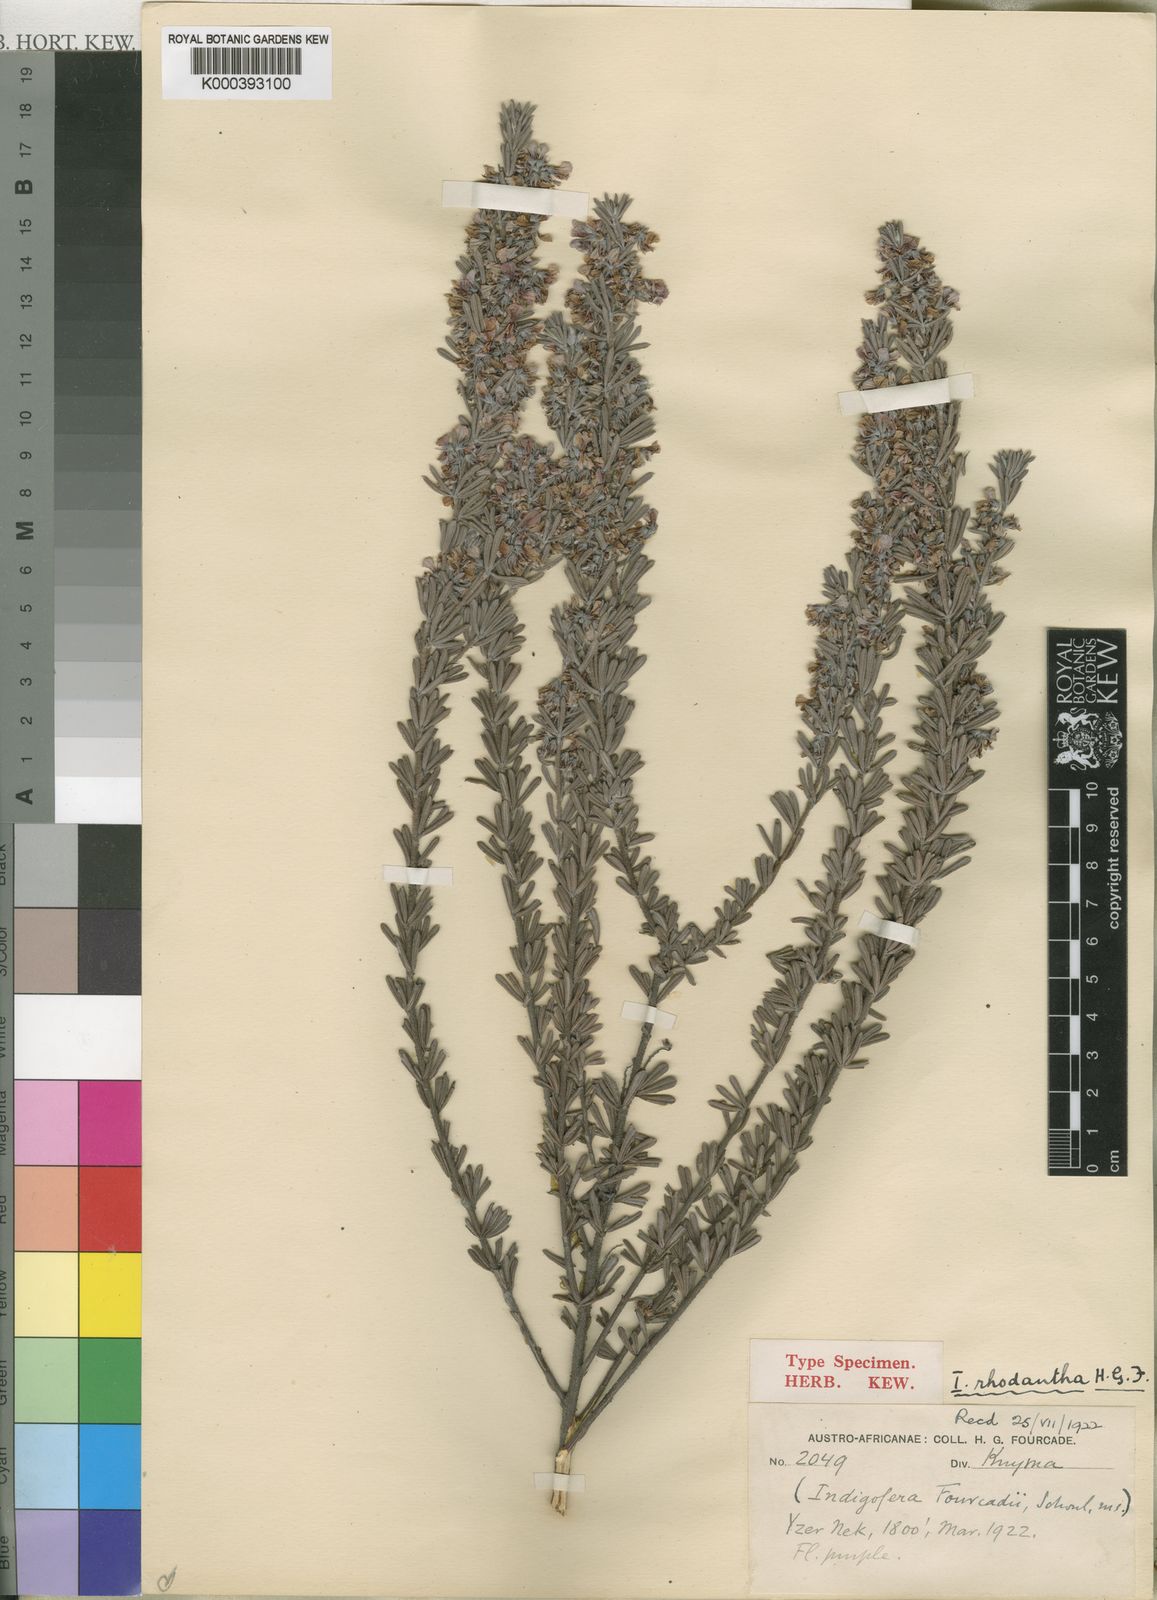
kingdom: Plantae
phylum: Tracheophyta
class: Magnoliopsida
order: Fabales
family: Fabaceae
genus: Indigofera
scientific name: Indigofera hispida
